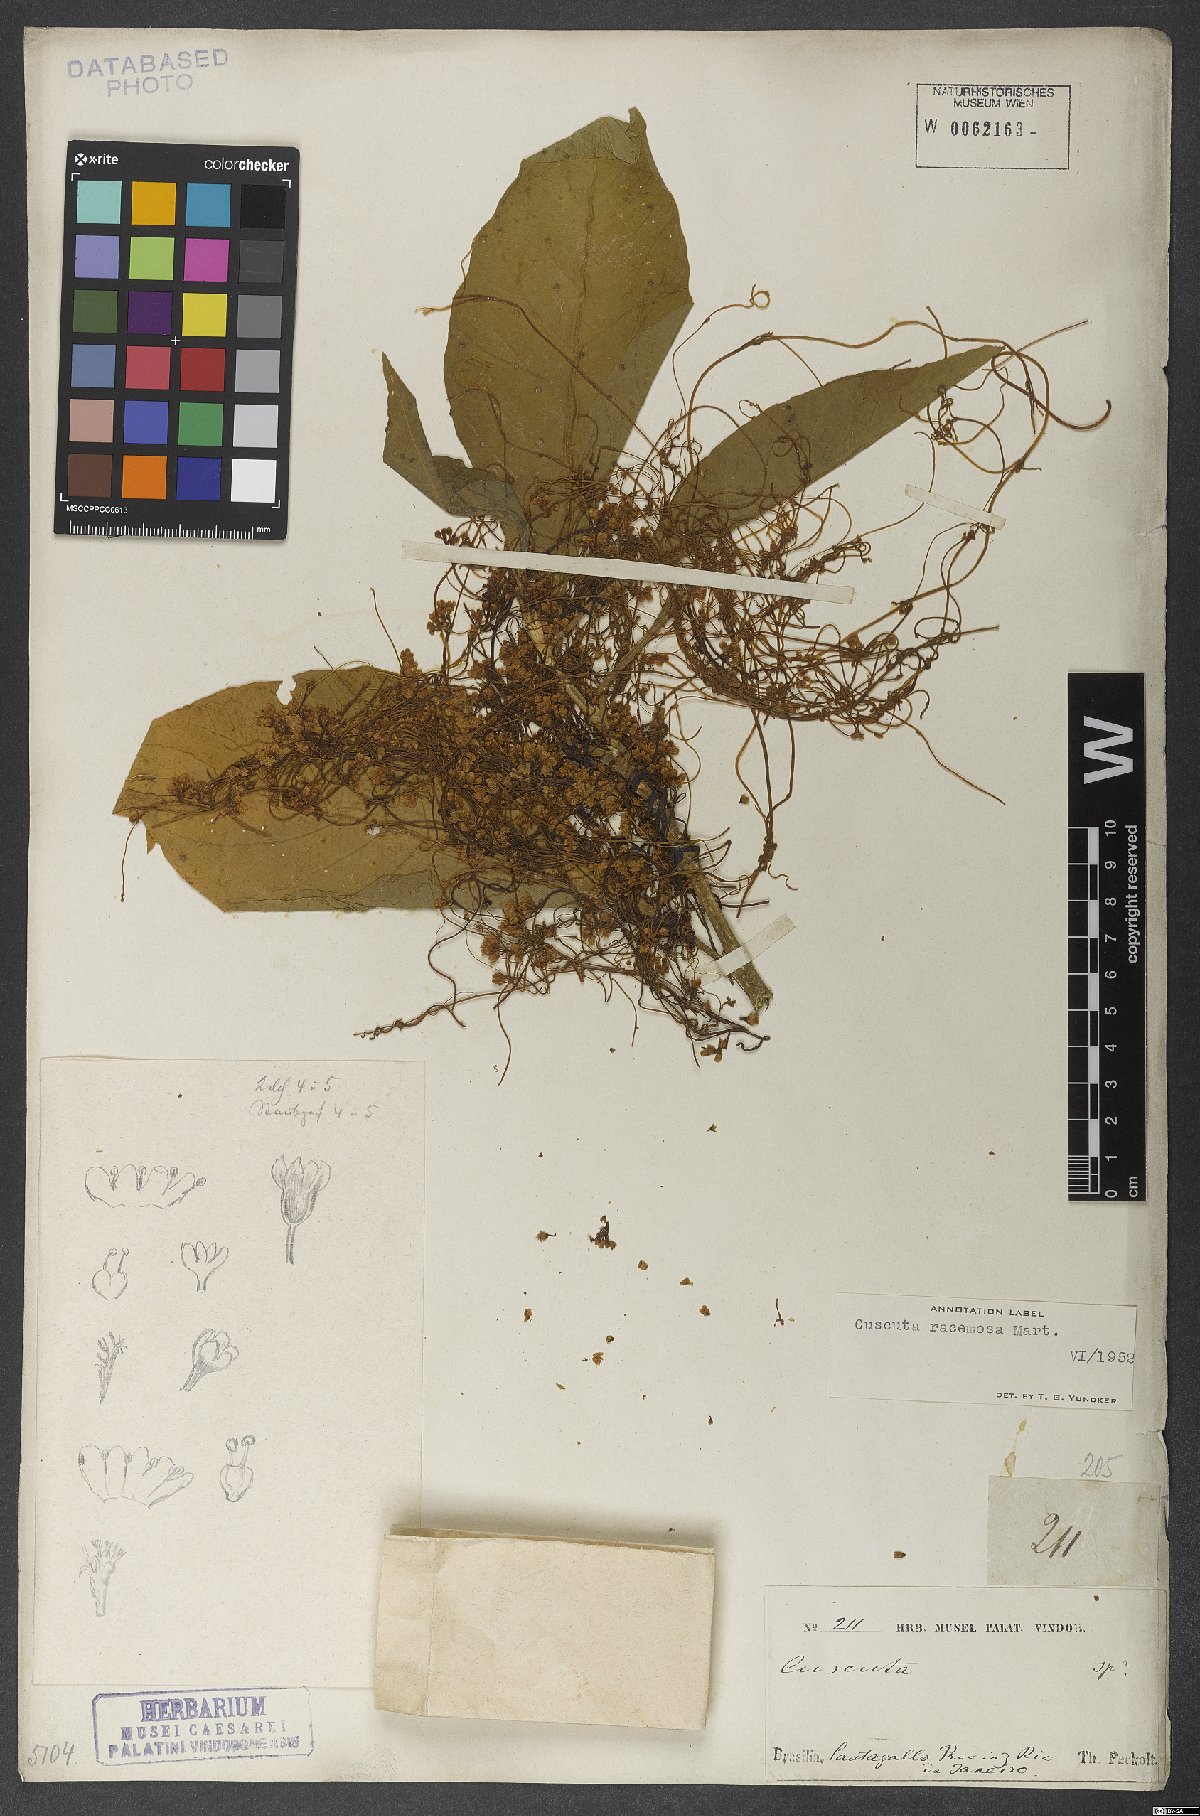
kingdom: Plantae
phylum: Tracheophyta
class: Magnoliopsida
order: Solanales
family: Convolvulaceae
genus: Cuscuta
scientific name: Cuscuta racemosa
